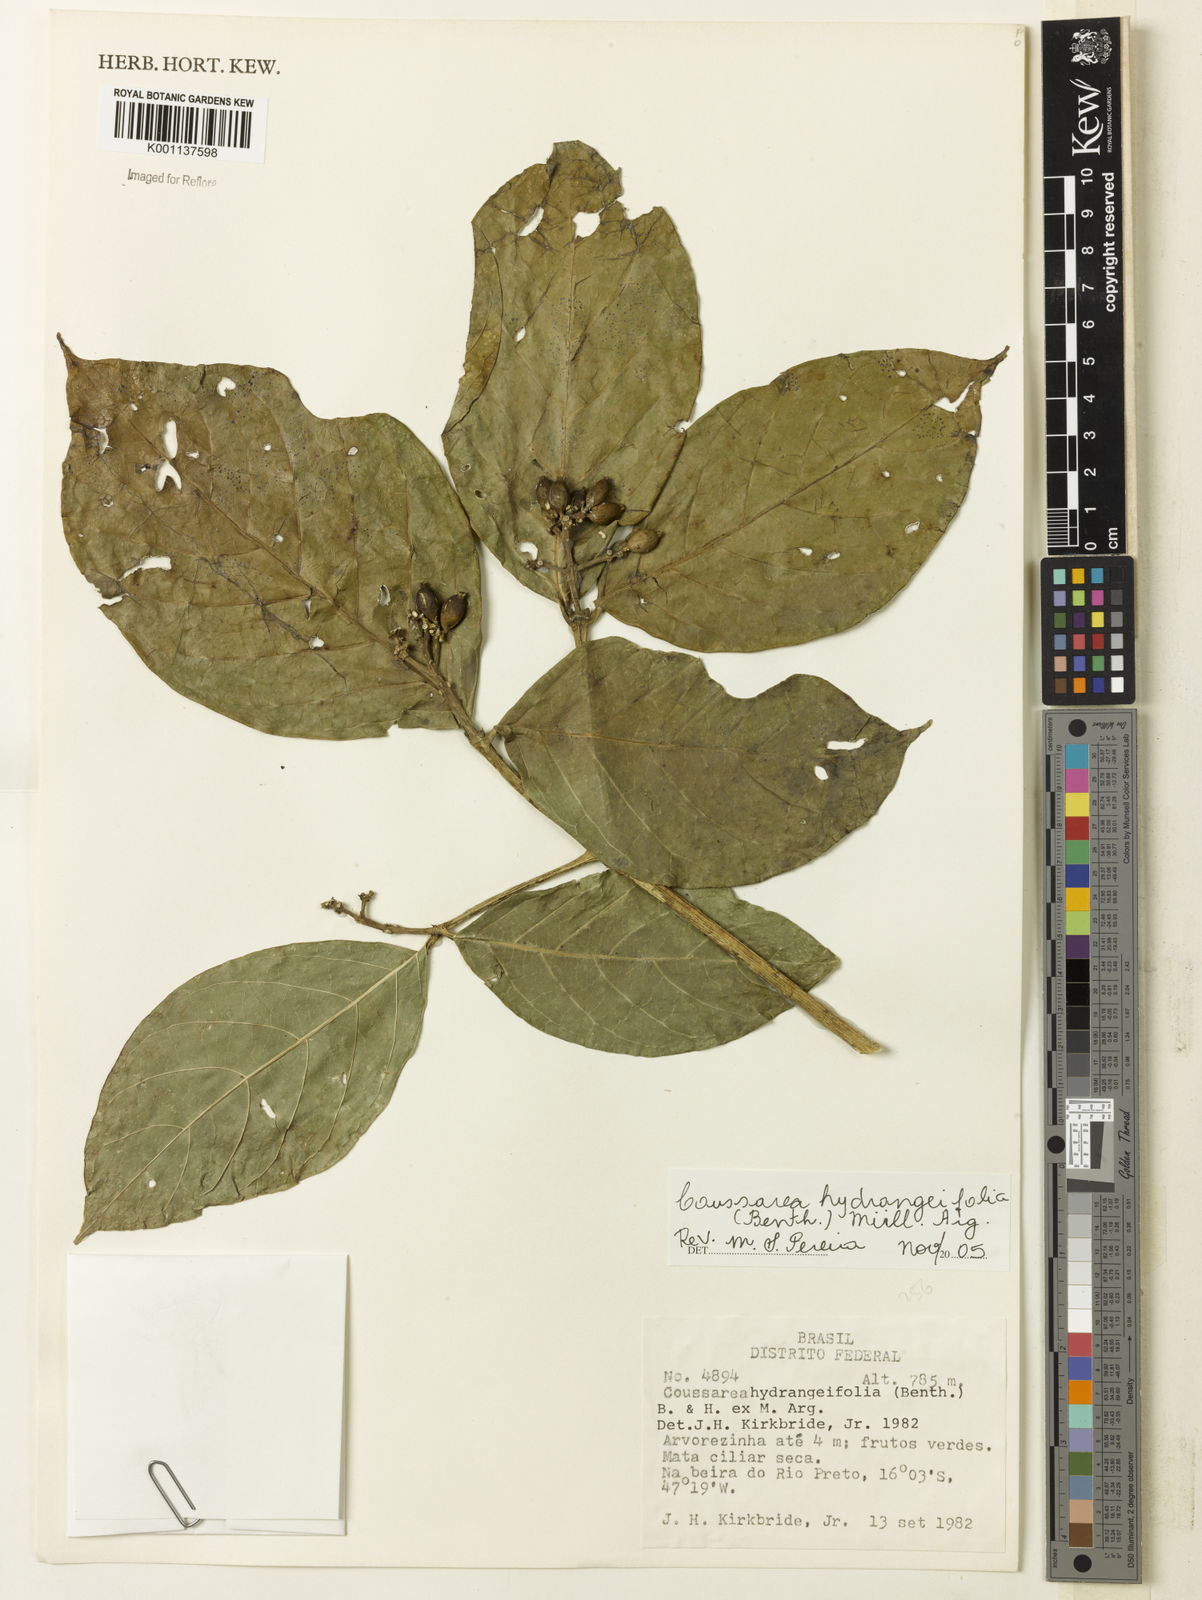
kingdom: Plantae
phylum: Tracheophyta
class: Magnoliopsida
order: Gentianales
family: Rubiaceae
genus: Coussarea
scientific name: Coussarea
